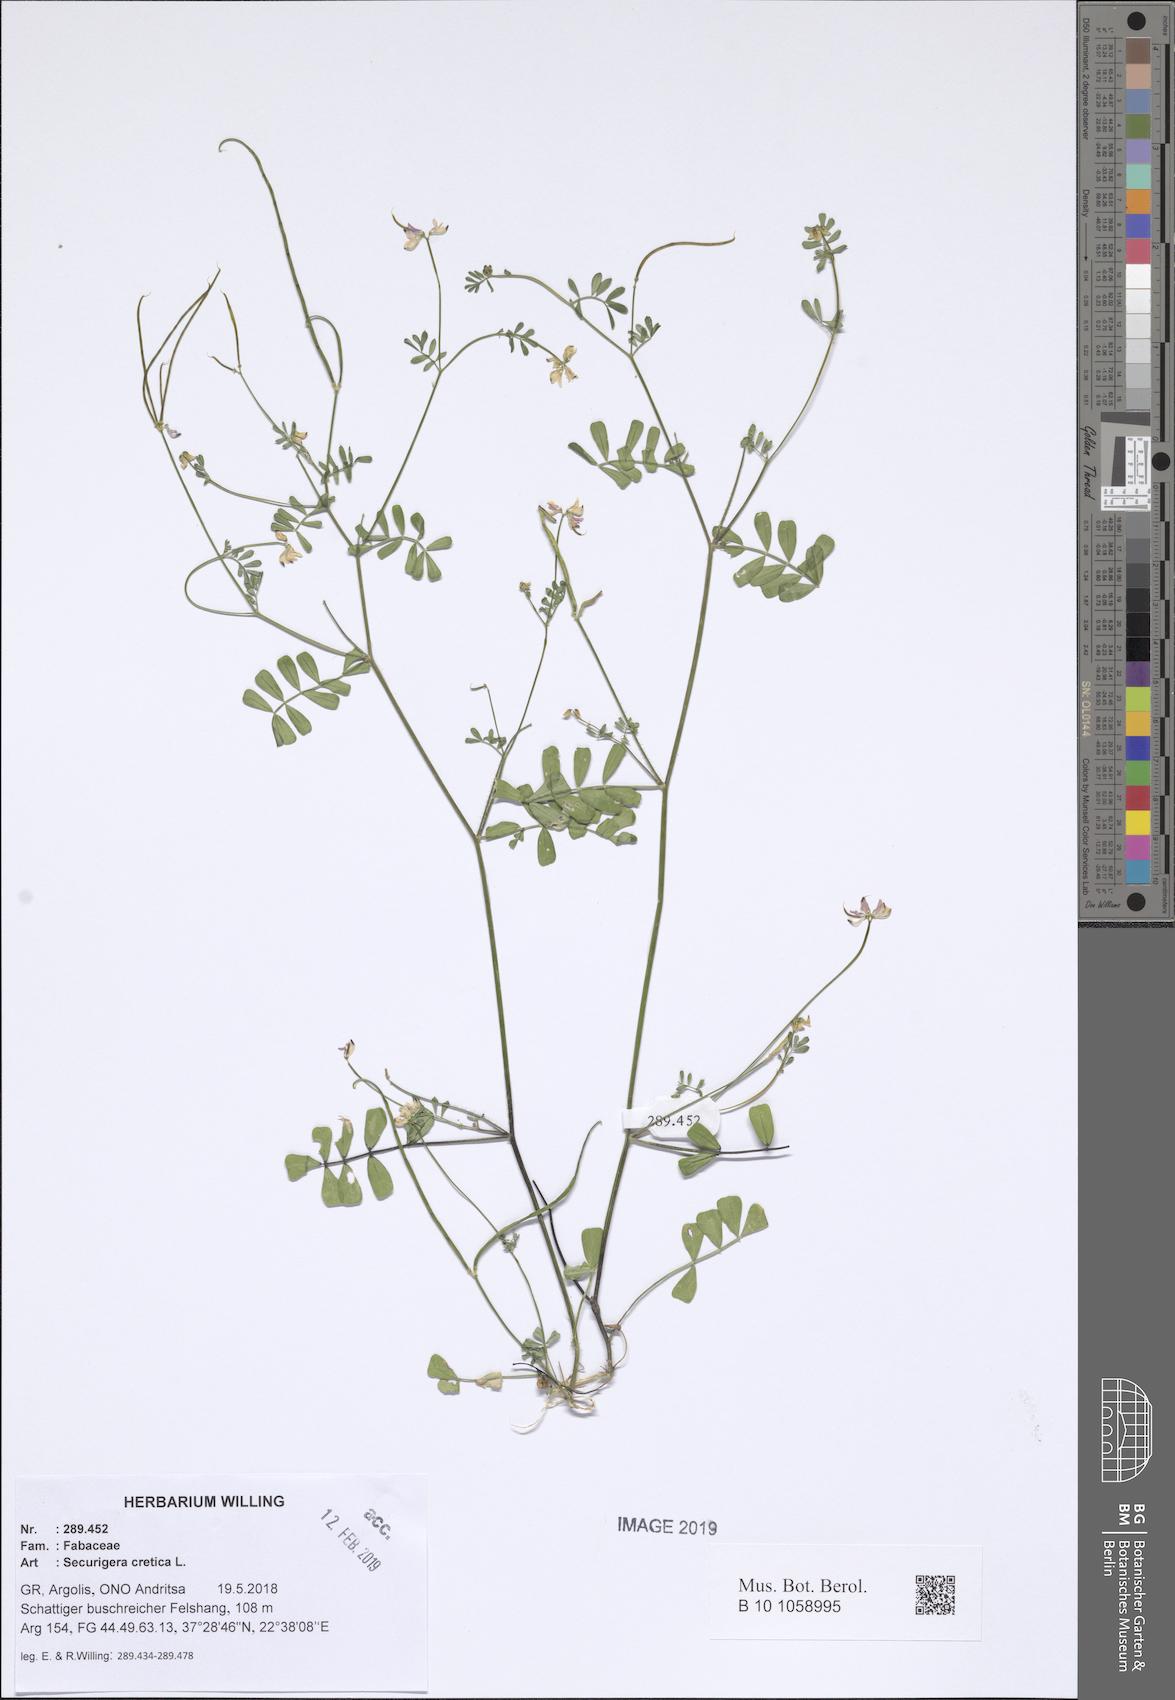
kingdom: Plantae
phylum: Tracheophyta
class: Magnoliopsida
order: Fabales
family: Fabaceae
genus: Coronilla
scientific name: Coronilla cretica
